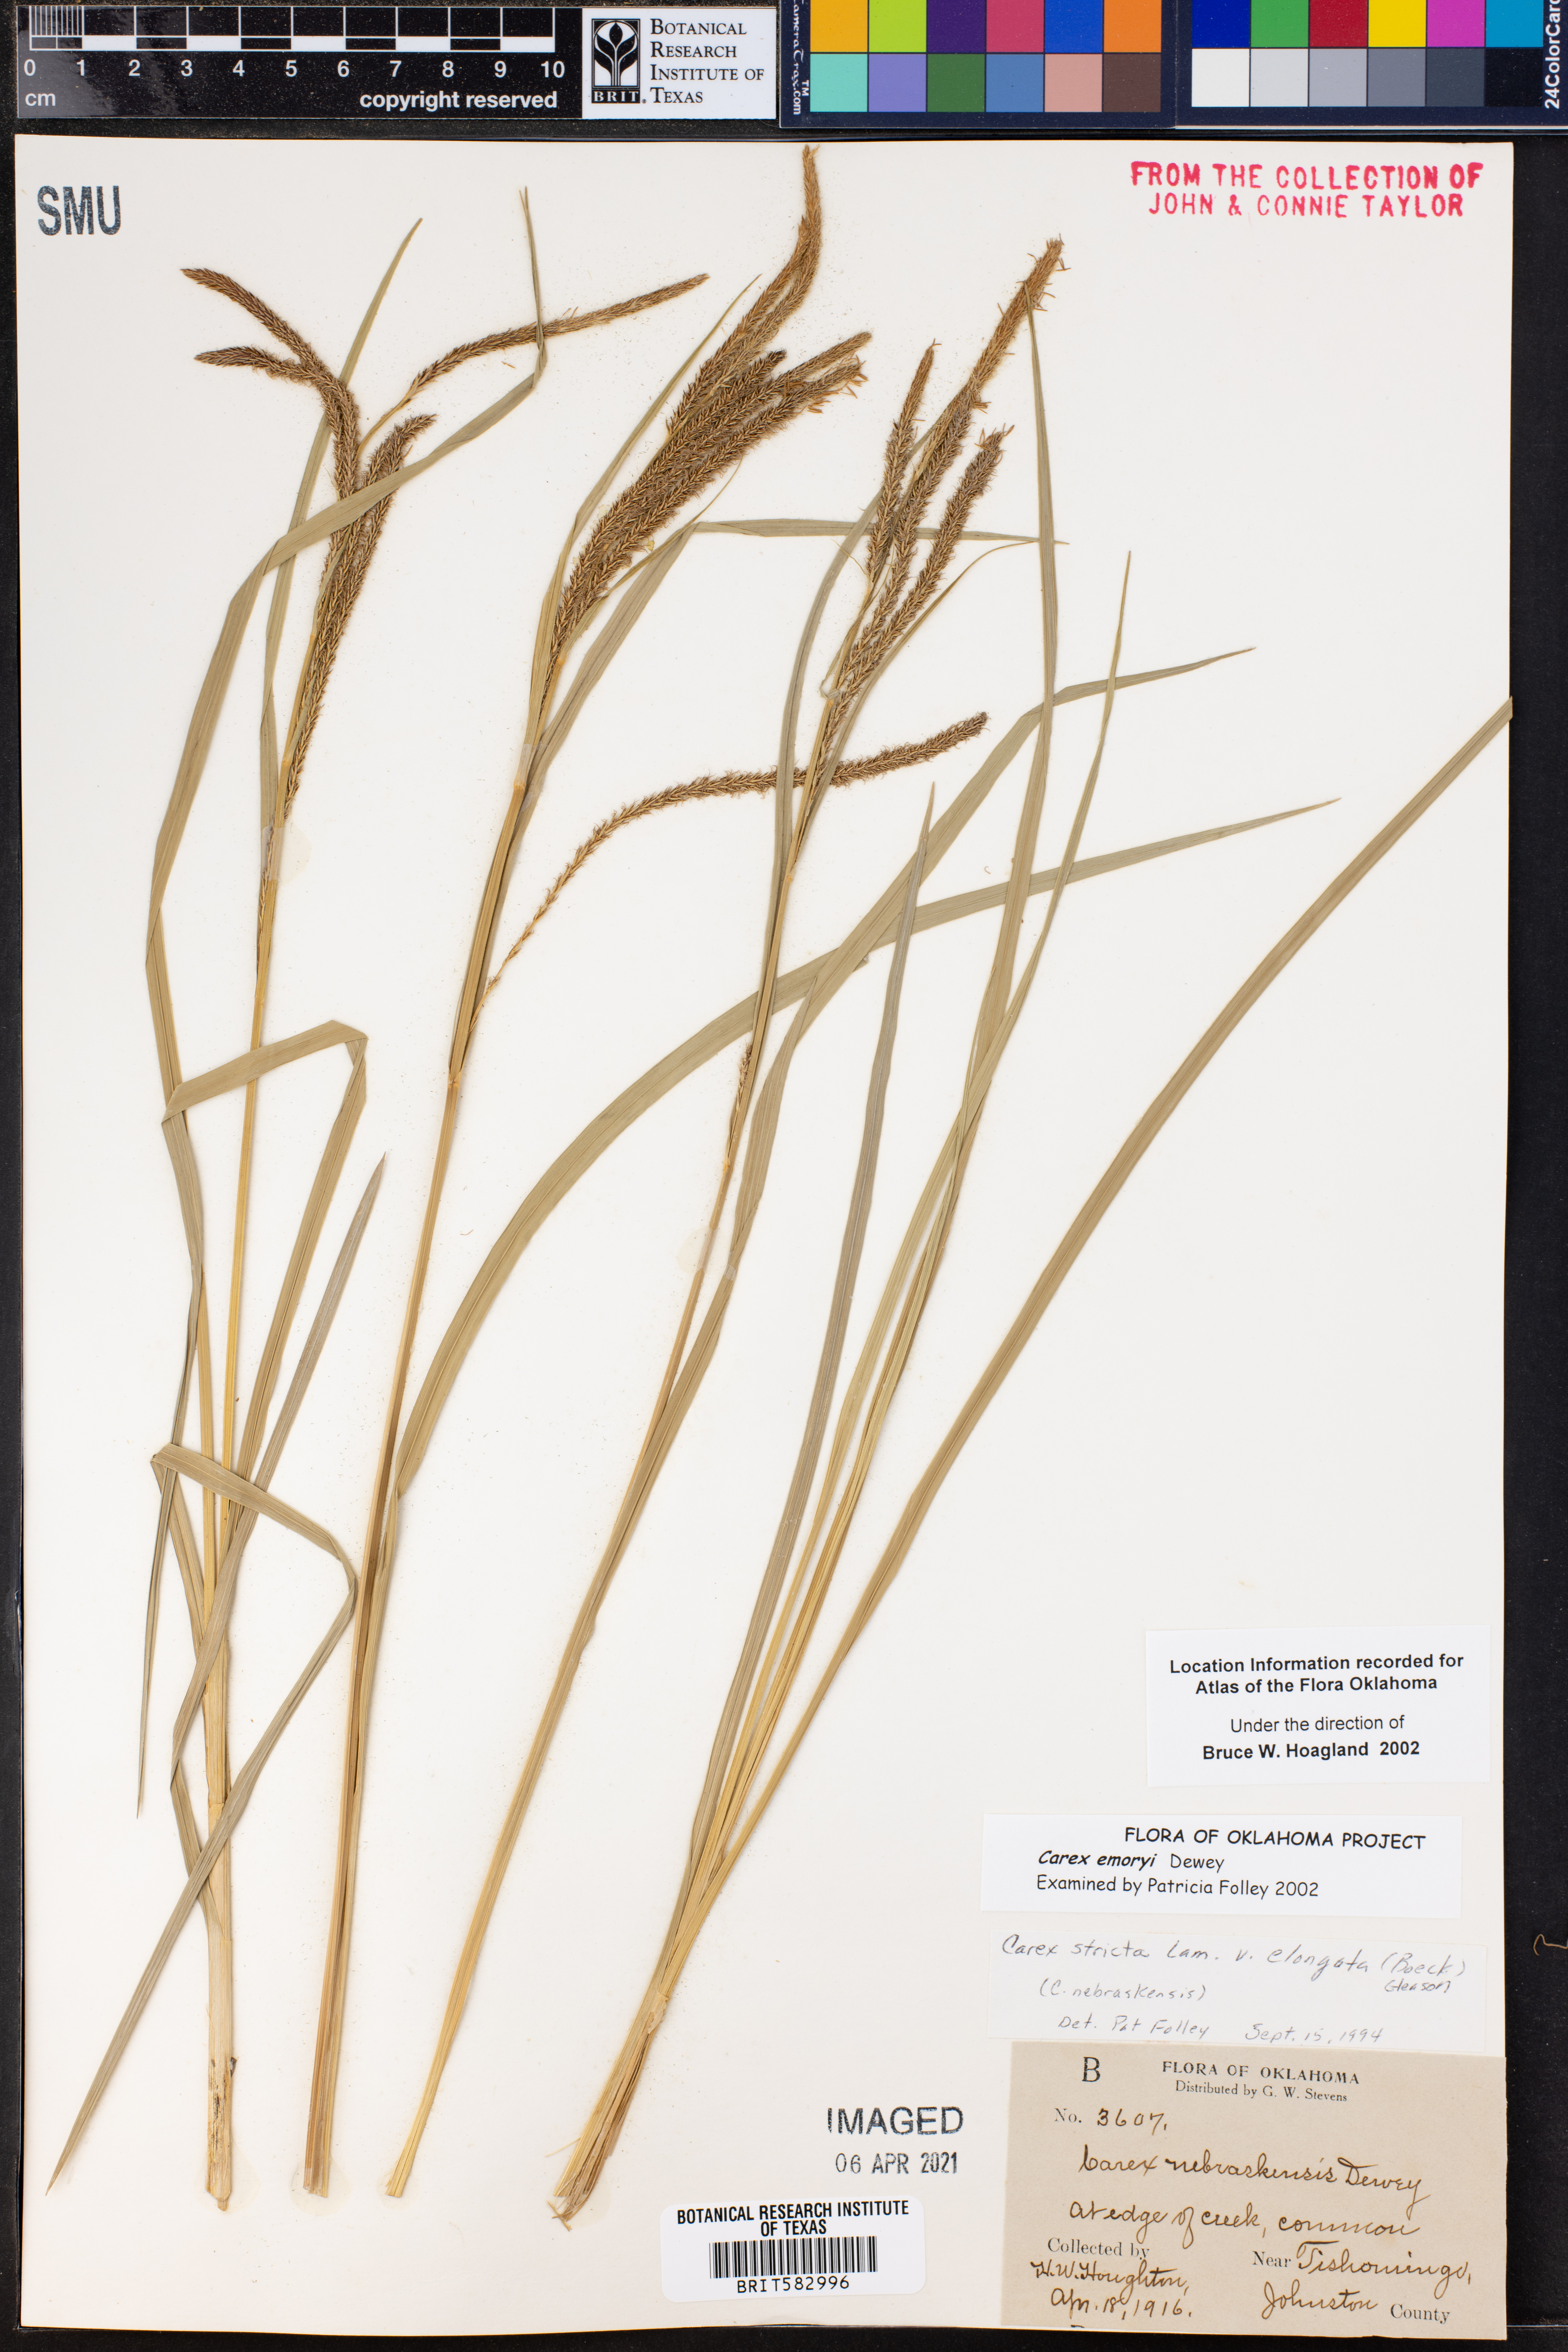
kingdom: Plantae
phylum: Tracheophyta
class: Liliopsida
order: Poales
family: Cyperaceae
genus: Carex
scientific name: Carex emoryi
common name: Emory's sedge
